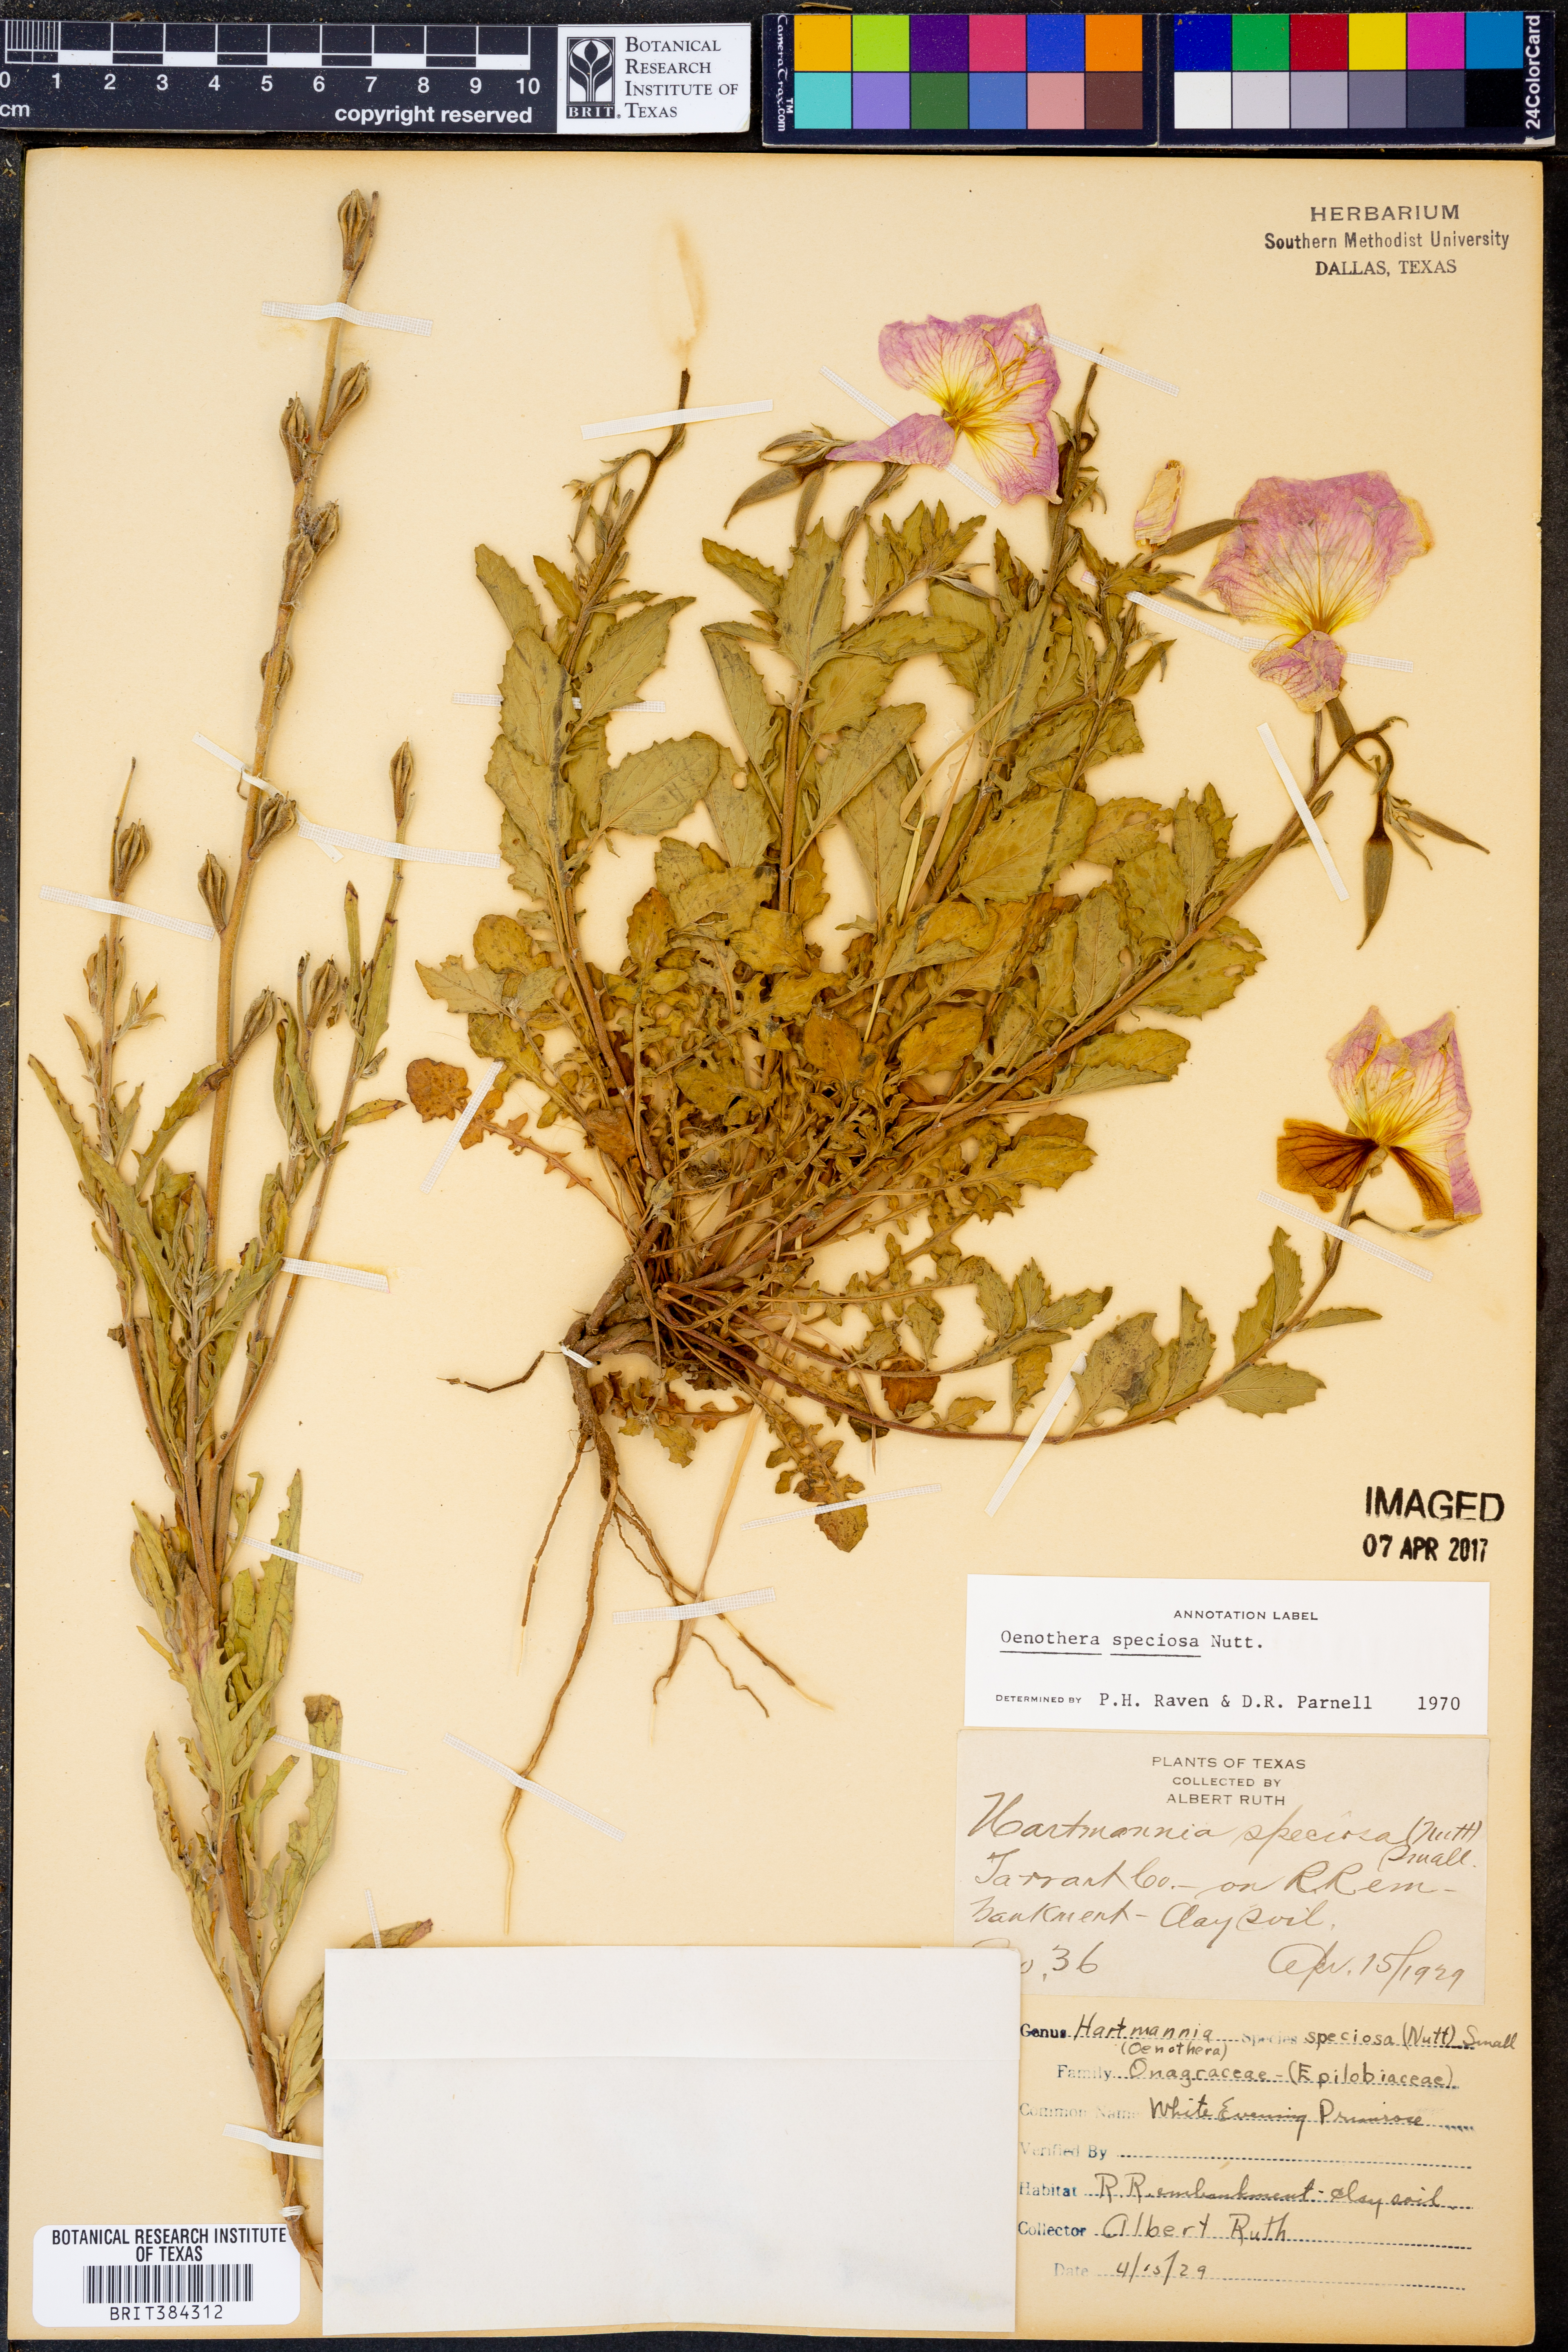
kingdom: Plantae
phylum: Tracheophyta
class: Magnoliopsida
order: Myrtales
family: Onagraceae
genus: Oenothera
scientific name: Oenothera speciosa
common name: White evening-primrose
